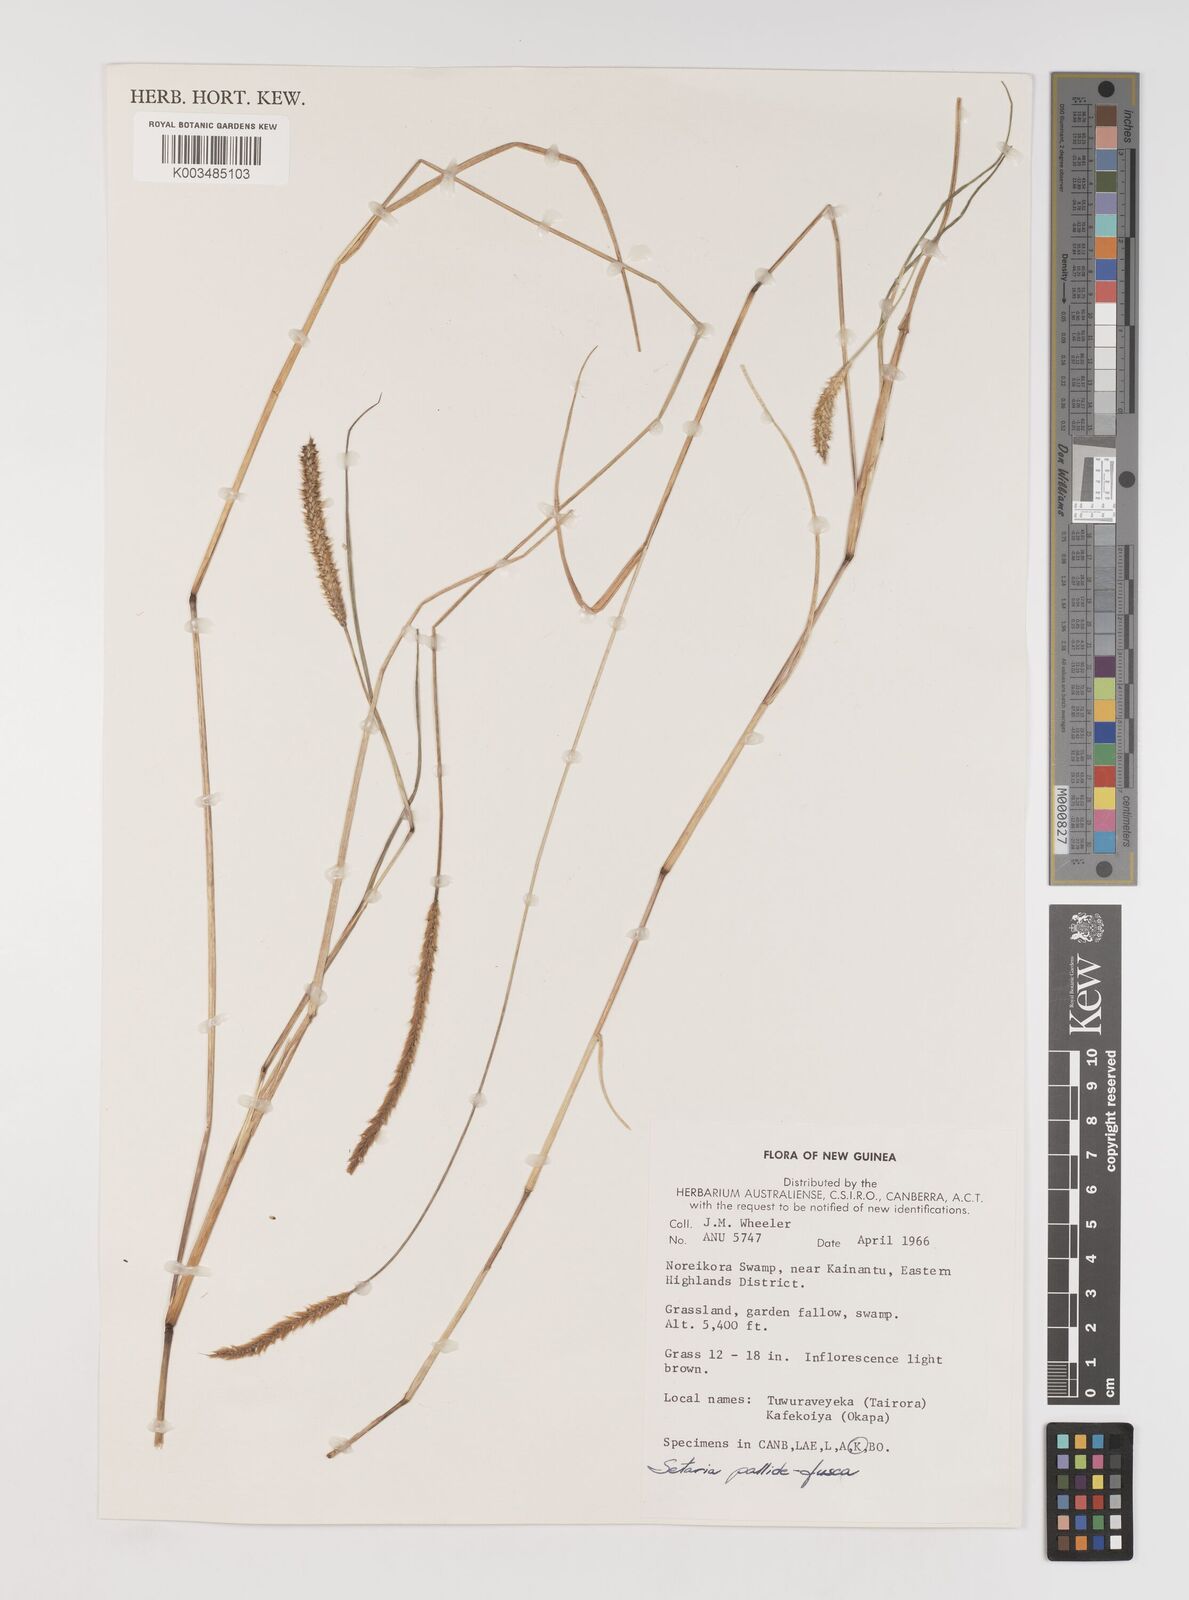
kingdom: Plantae
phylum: Tracheophyta
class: Liliopsida
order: Poales
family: Poaceae
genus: Setaria
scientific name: Setaria parviflora
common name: Knotroot bristle-grass
